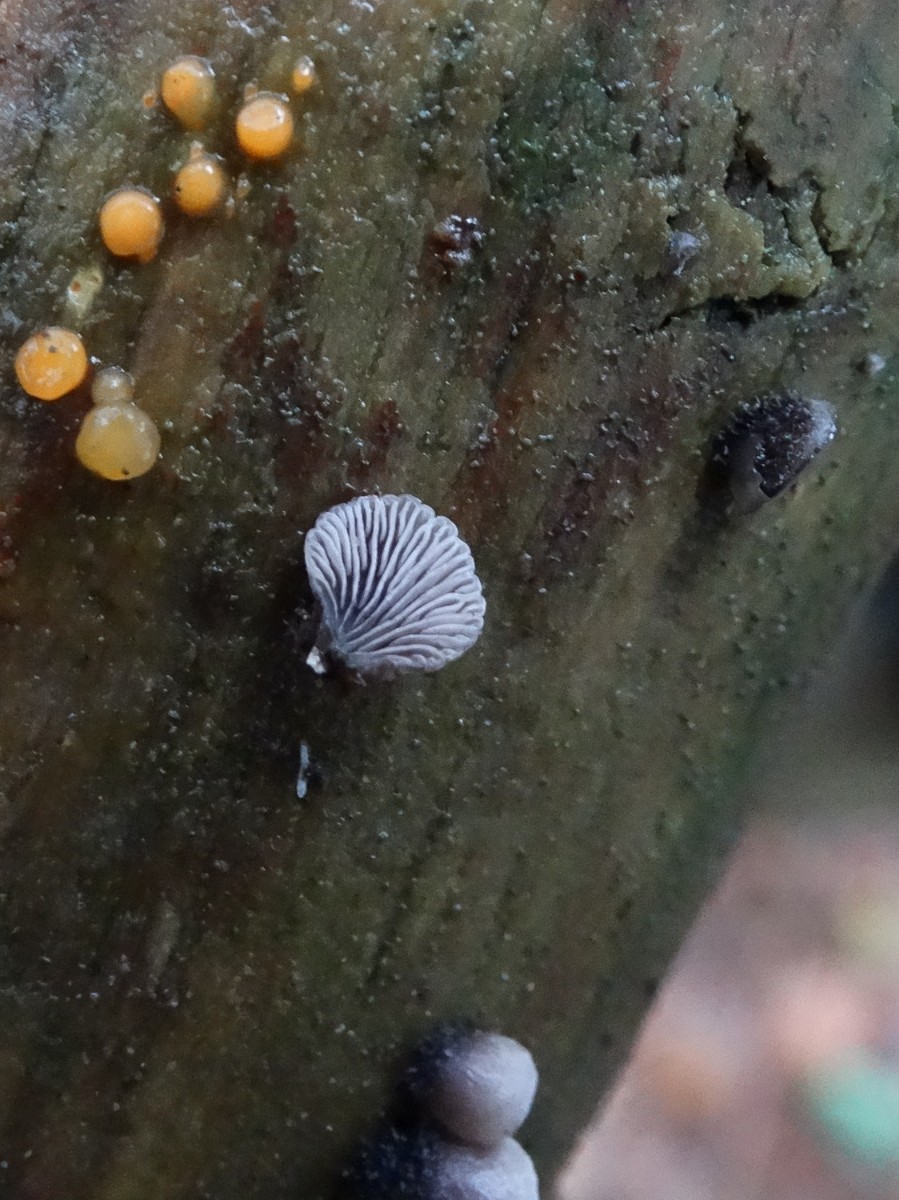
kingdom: Fungi
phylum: Basidiomycota
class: Agaricomycetes
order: Agaricales
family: Pleurotaceae
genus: Resupinatus
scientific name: Resupinatus trichotis
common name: mørkfiltet barkhat
